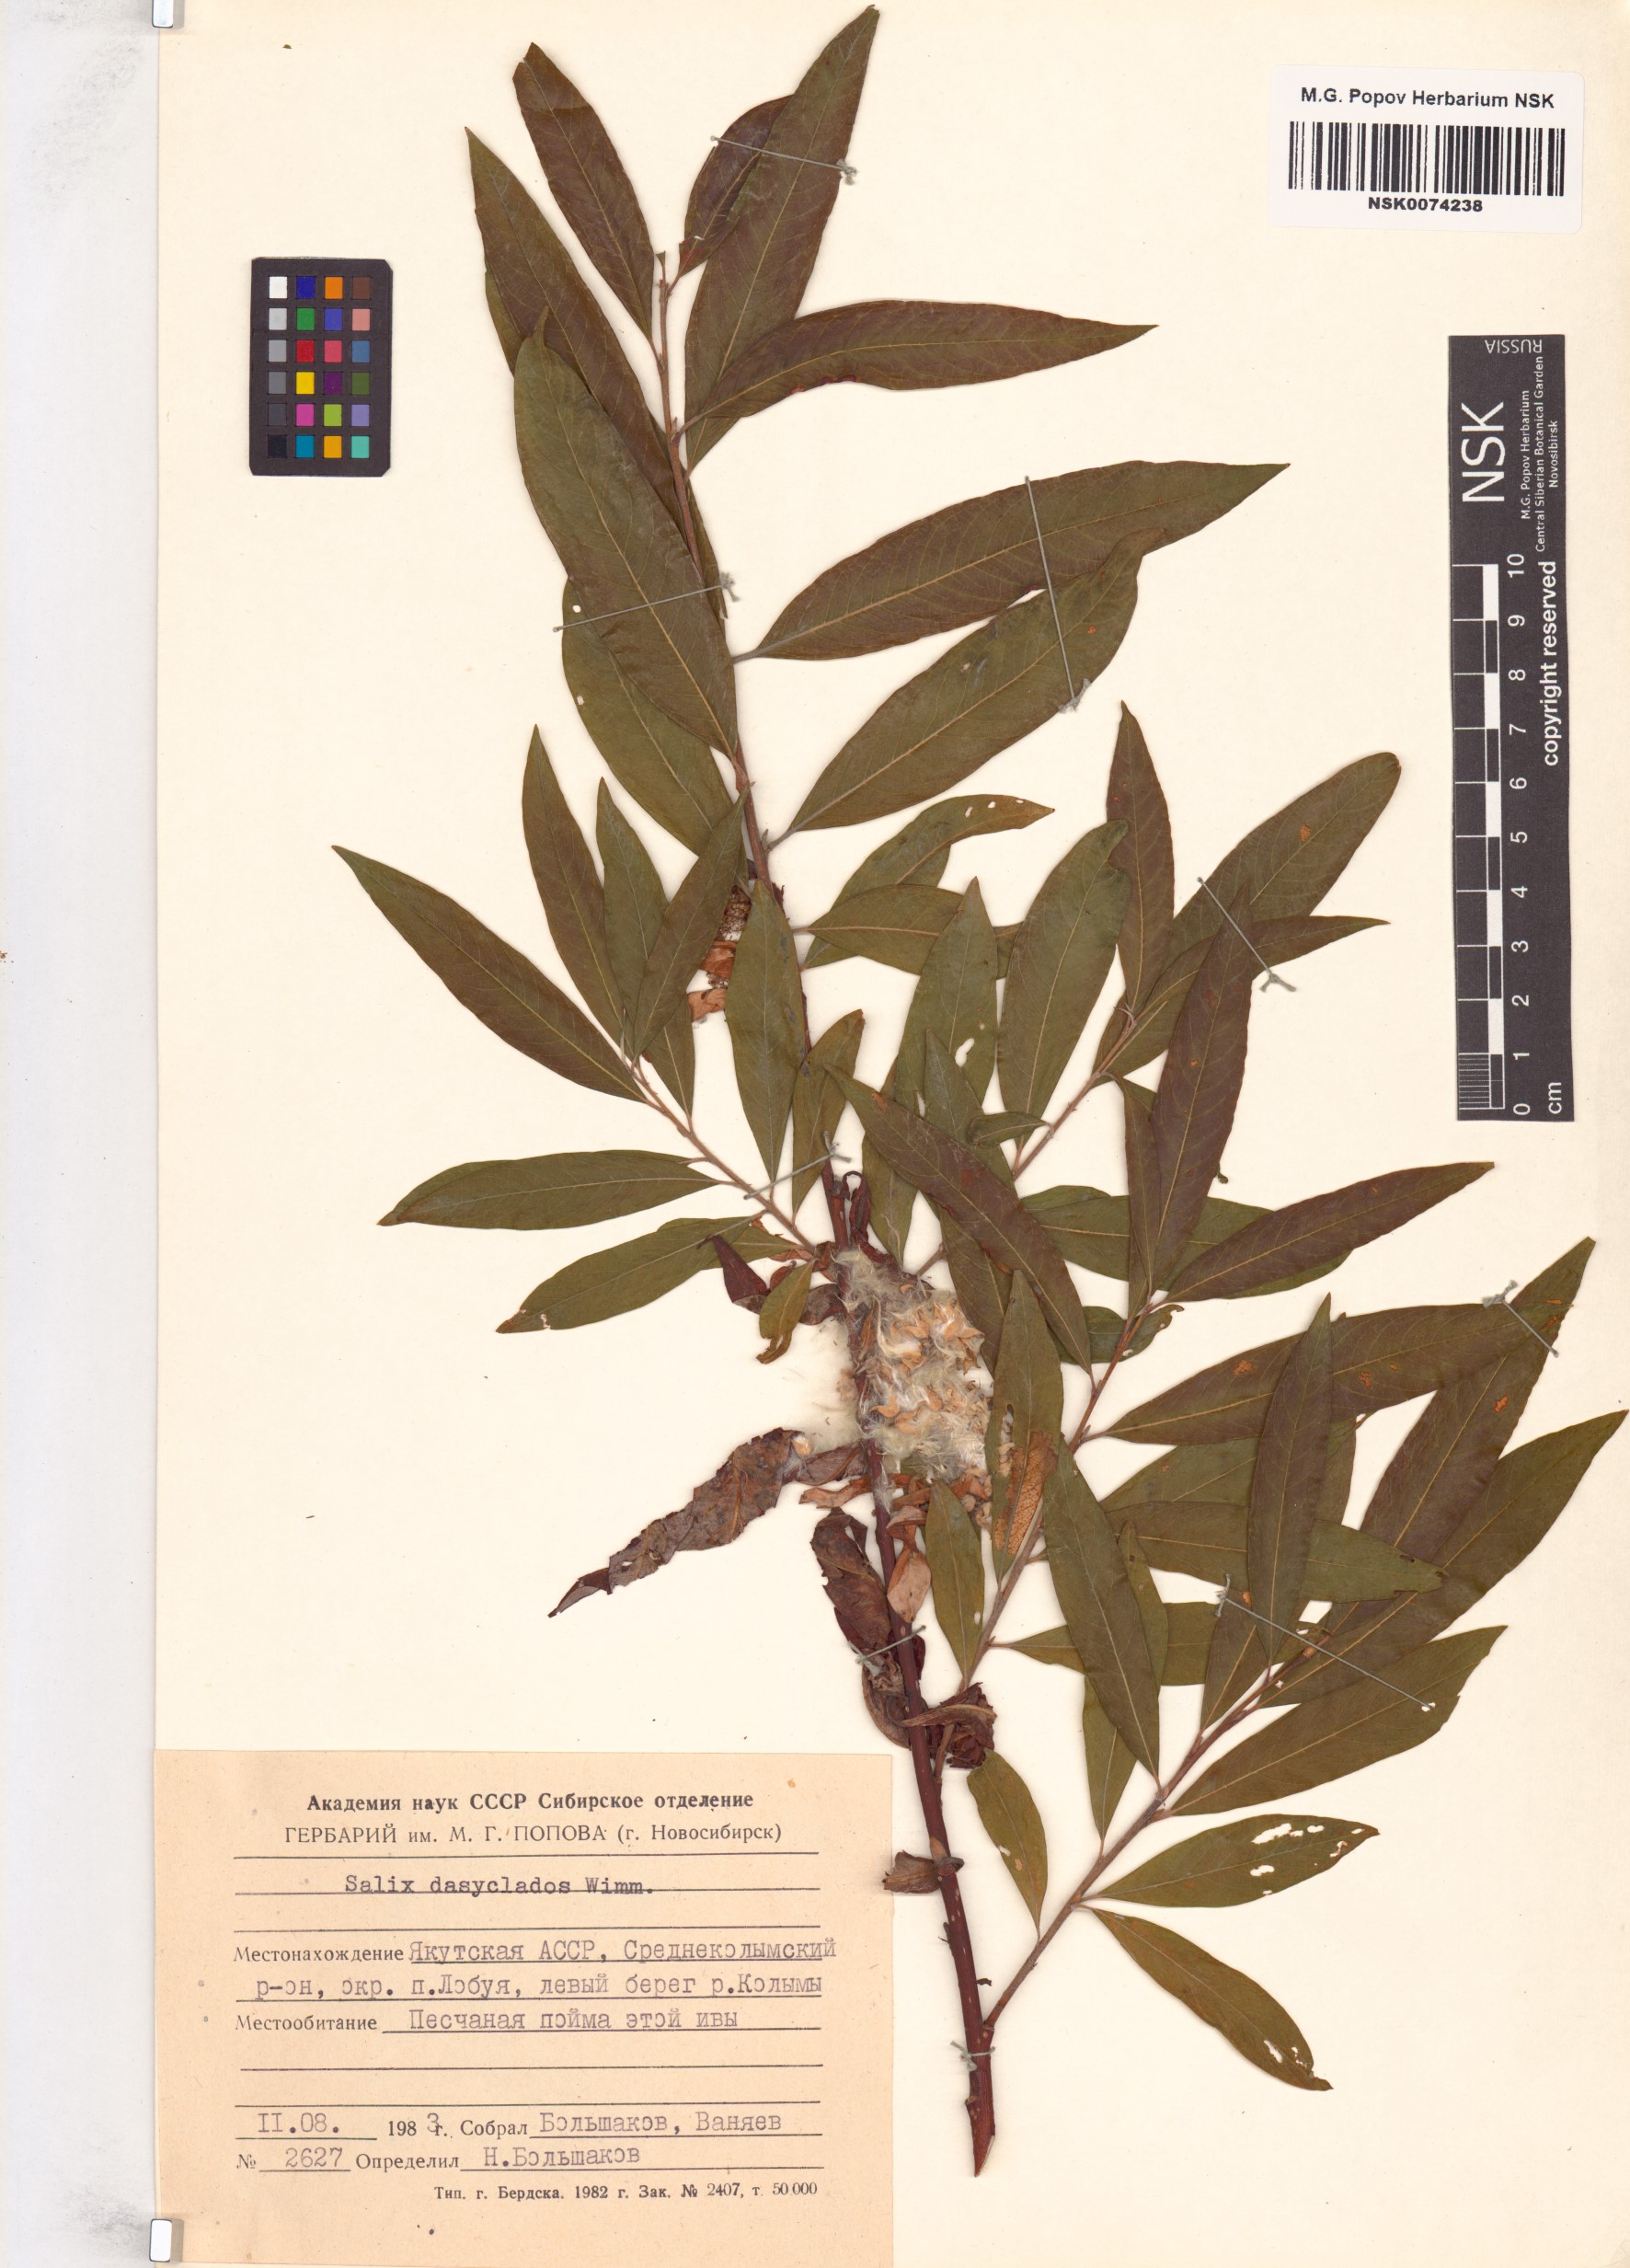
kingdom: Plantae
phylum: Tracheophyta
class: Magnoliopsida
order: Malpighiales
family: Salicaceae
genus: Salix
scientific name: Salix gmelinii
